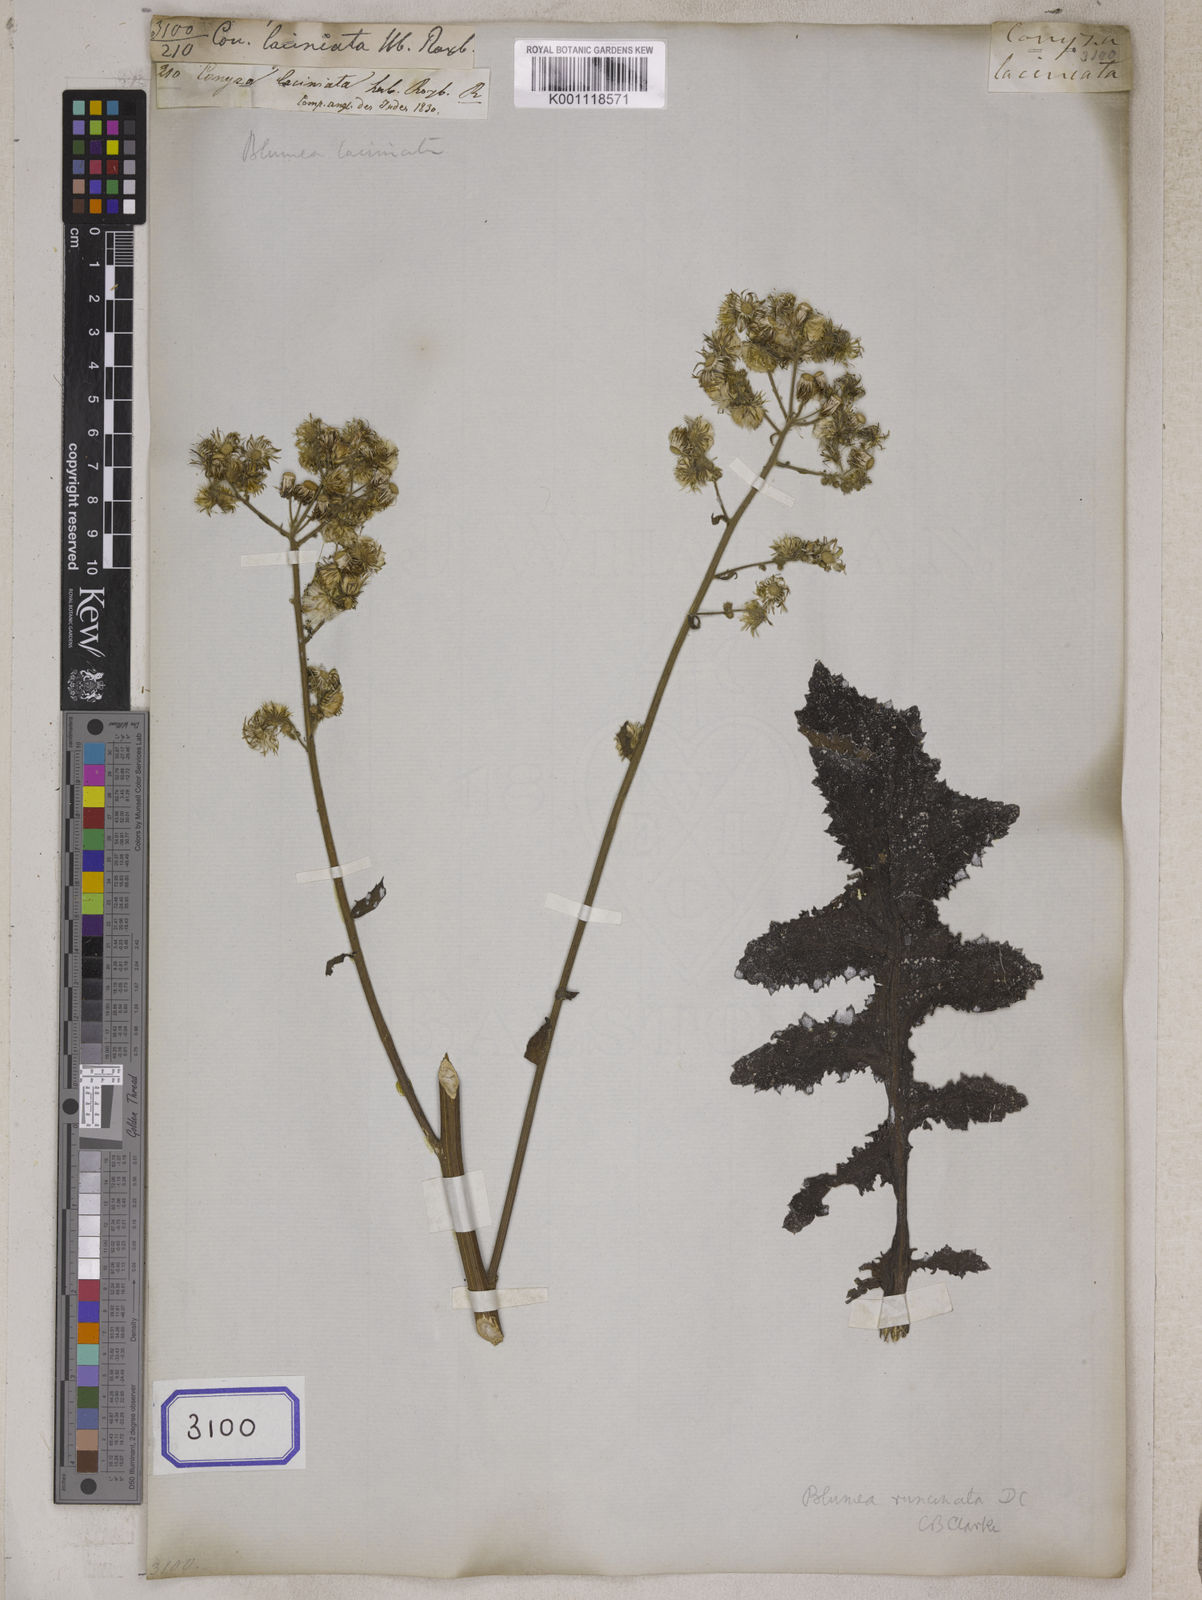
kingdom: Plantae
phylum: Tracheophyta
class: Magnoliopsida
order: Asterales
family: Asteraceae
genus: Blumea
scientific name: Blumea sinuata
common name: Cutleaf false oxtongue
